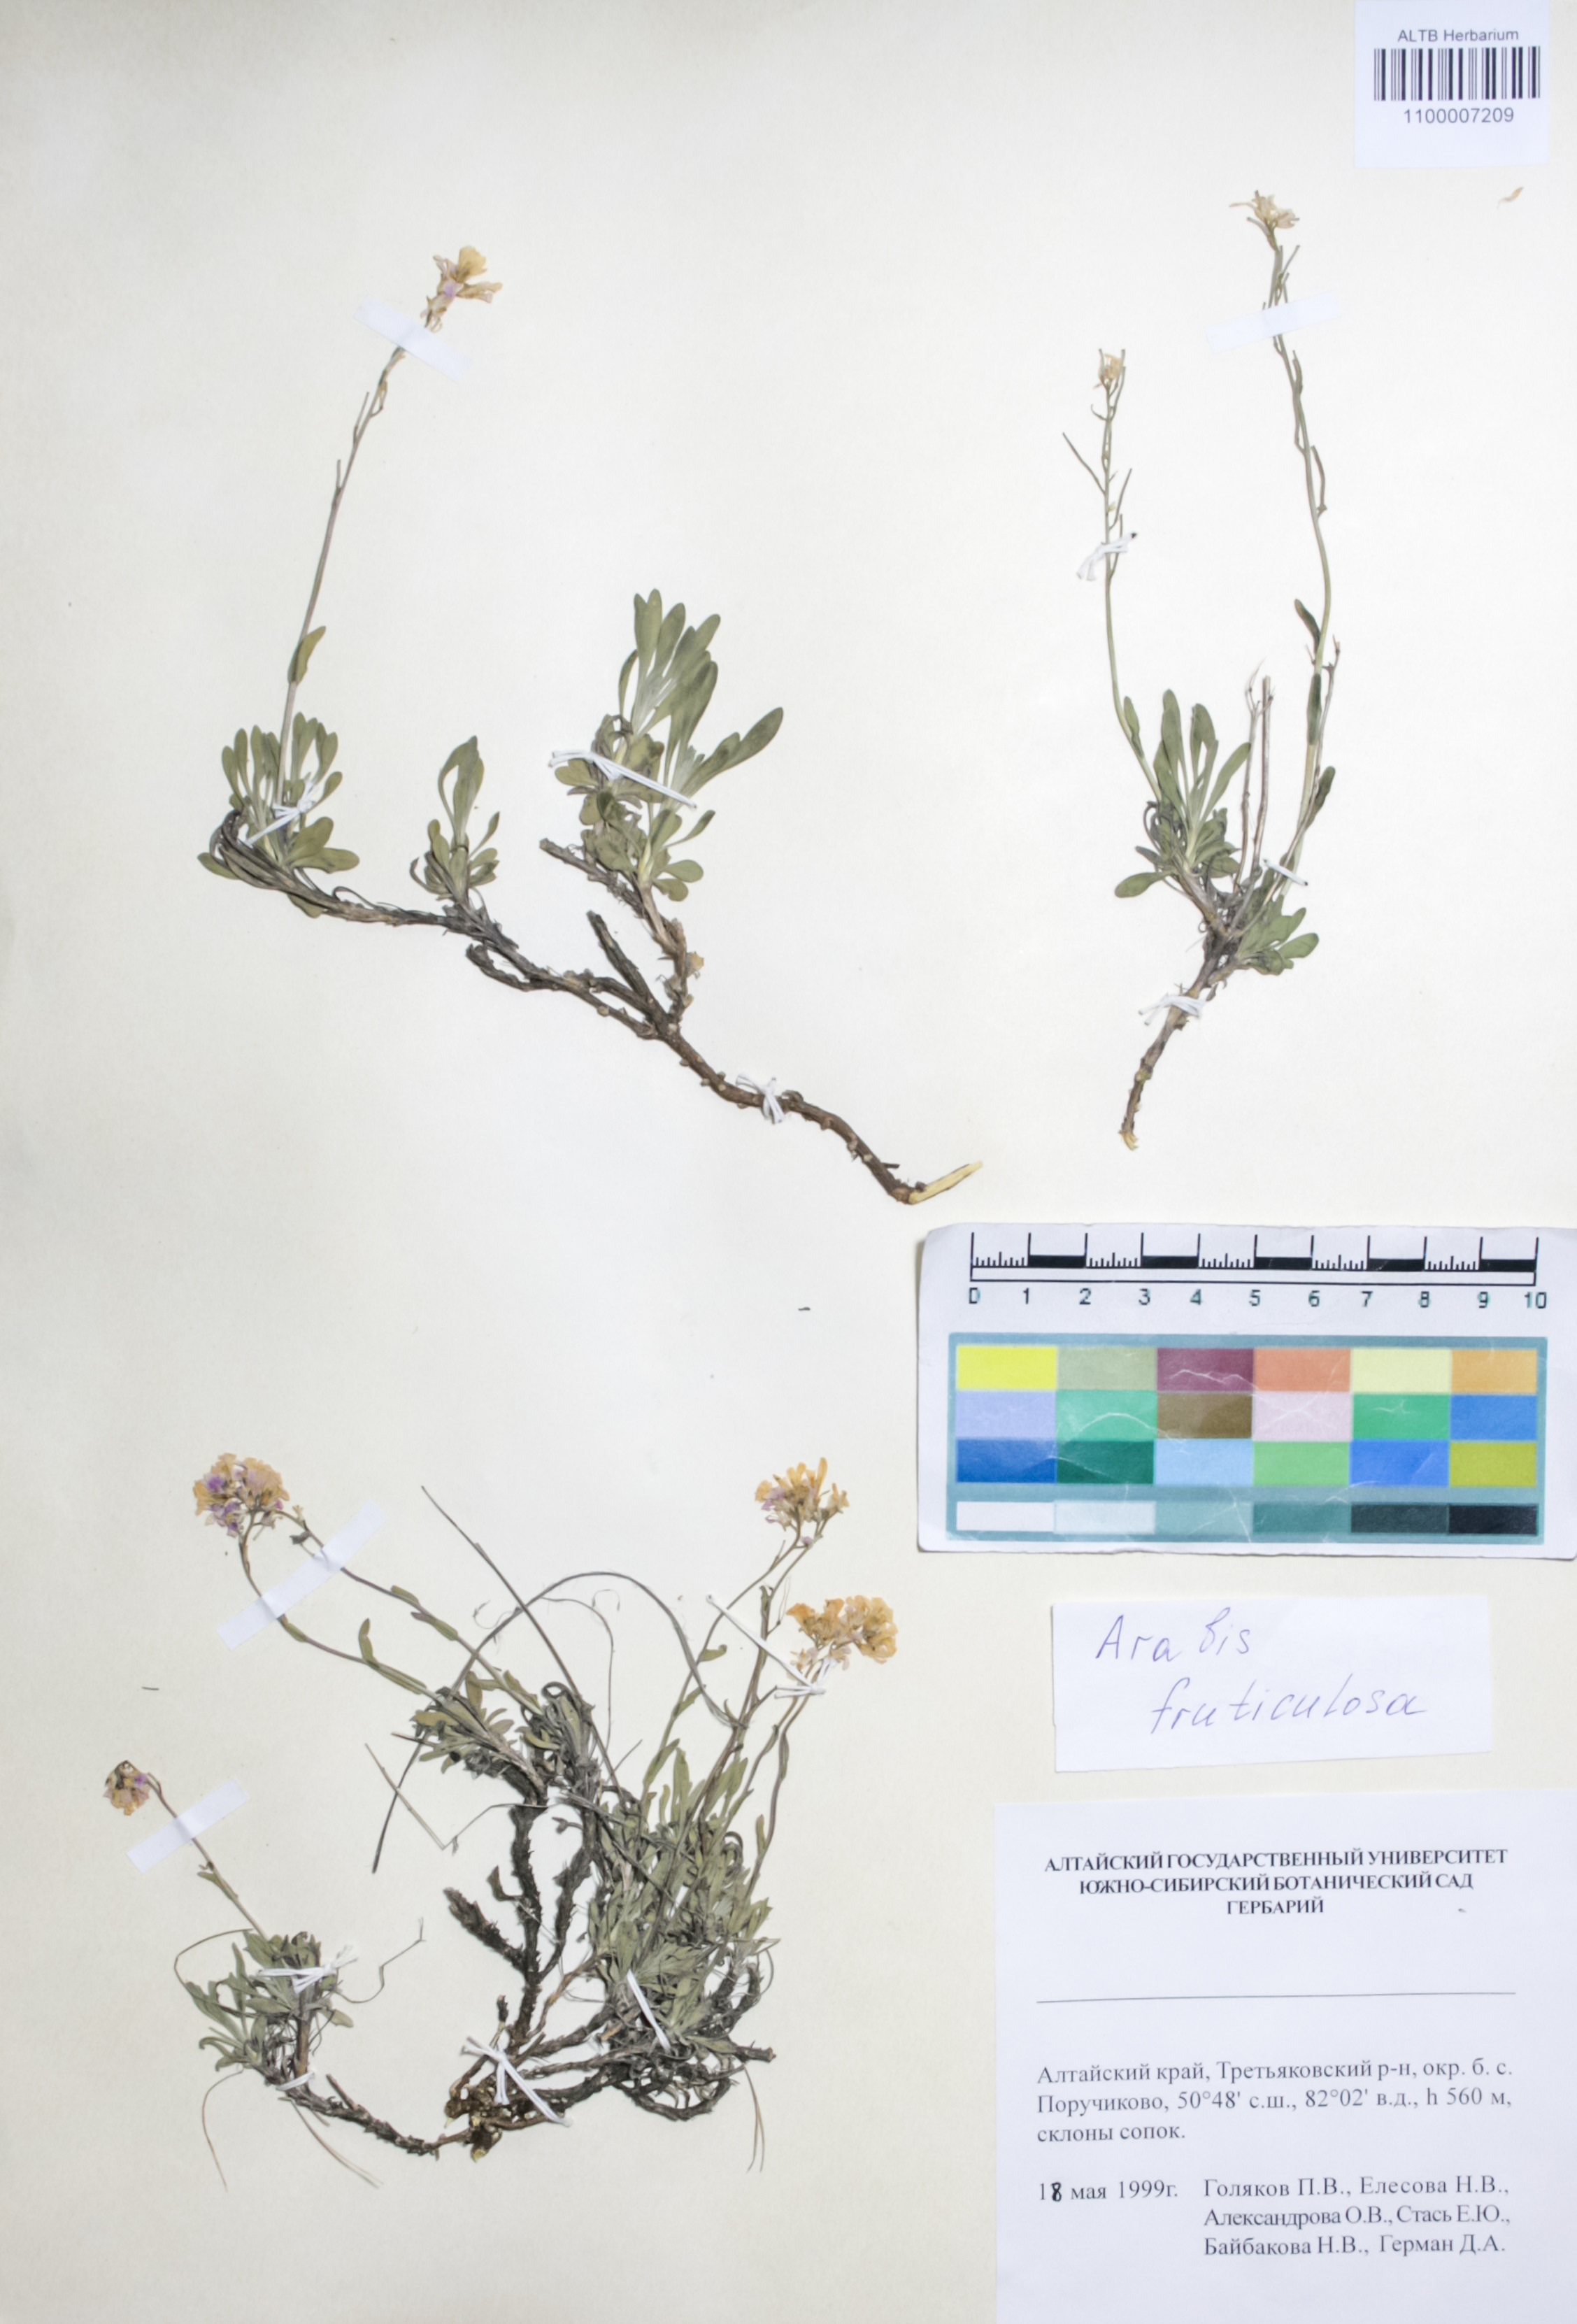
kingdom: Plantae
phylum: Tracheophyta
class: Magnoliopsida
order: Brassicales
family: Brassicaceae
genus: Dendroarabis
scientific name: Dendroarabis fruticulosa
